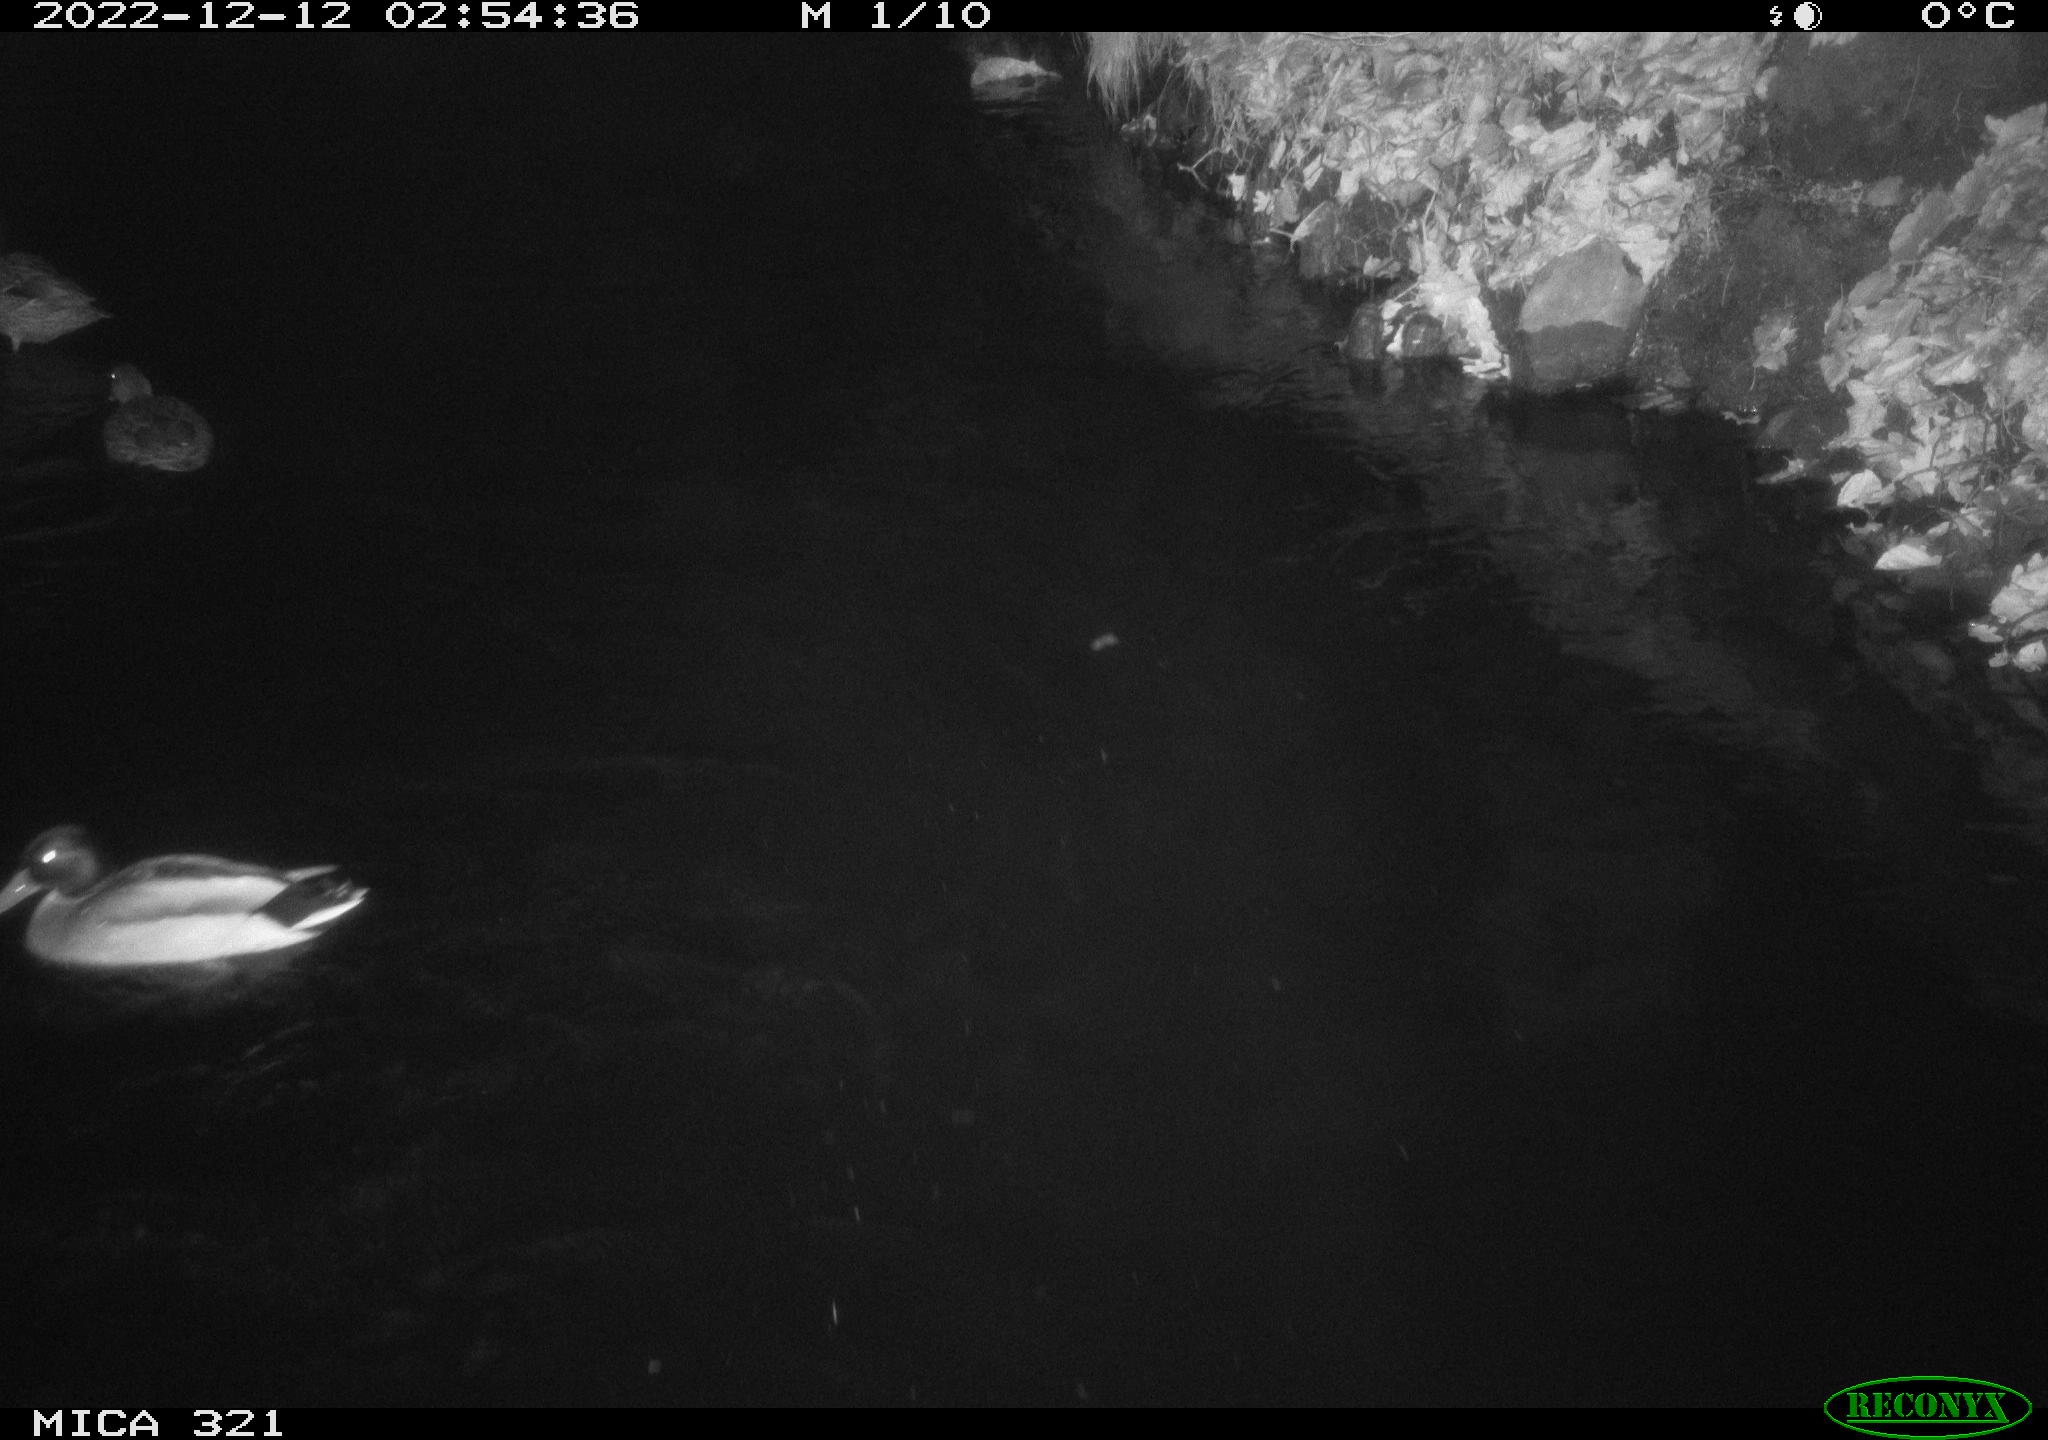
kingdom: Animalia
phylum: Chordata
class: Aves
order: Anseriformes
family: Anatidae
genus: Anas
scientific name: Anas
